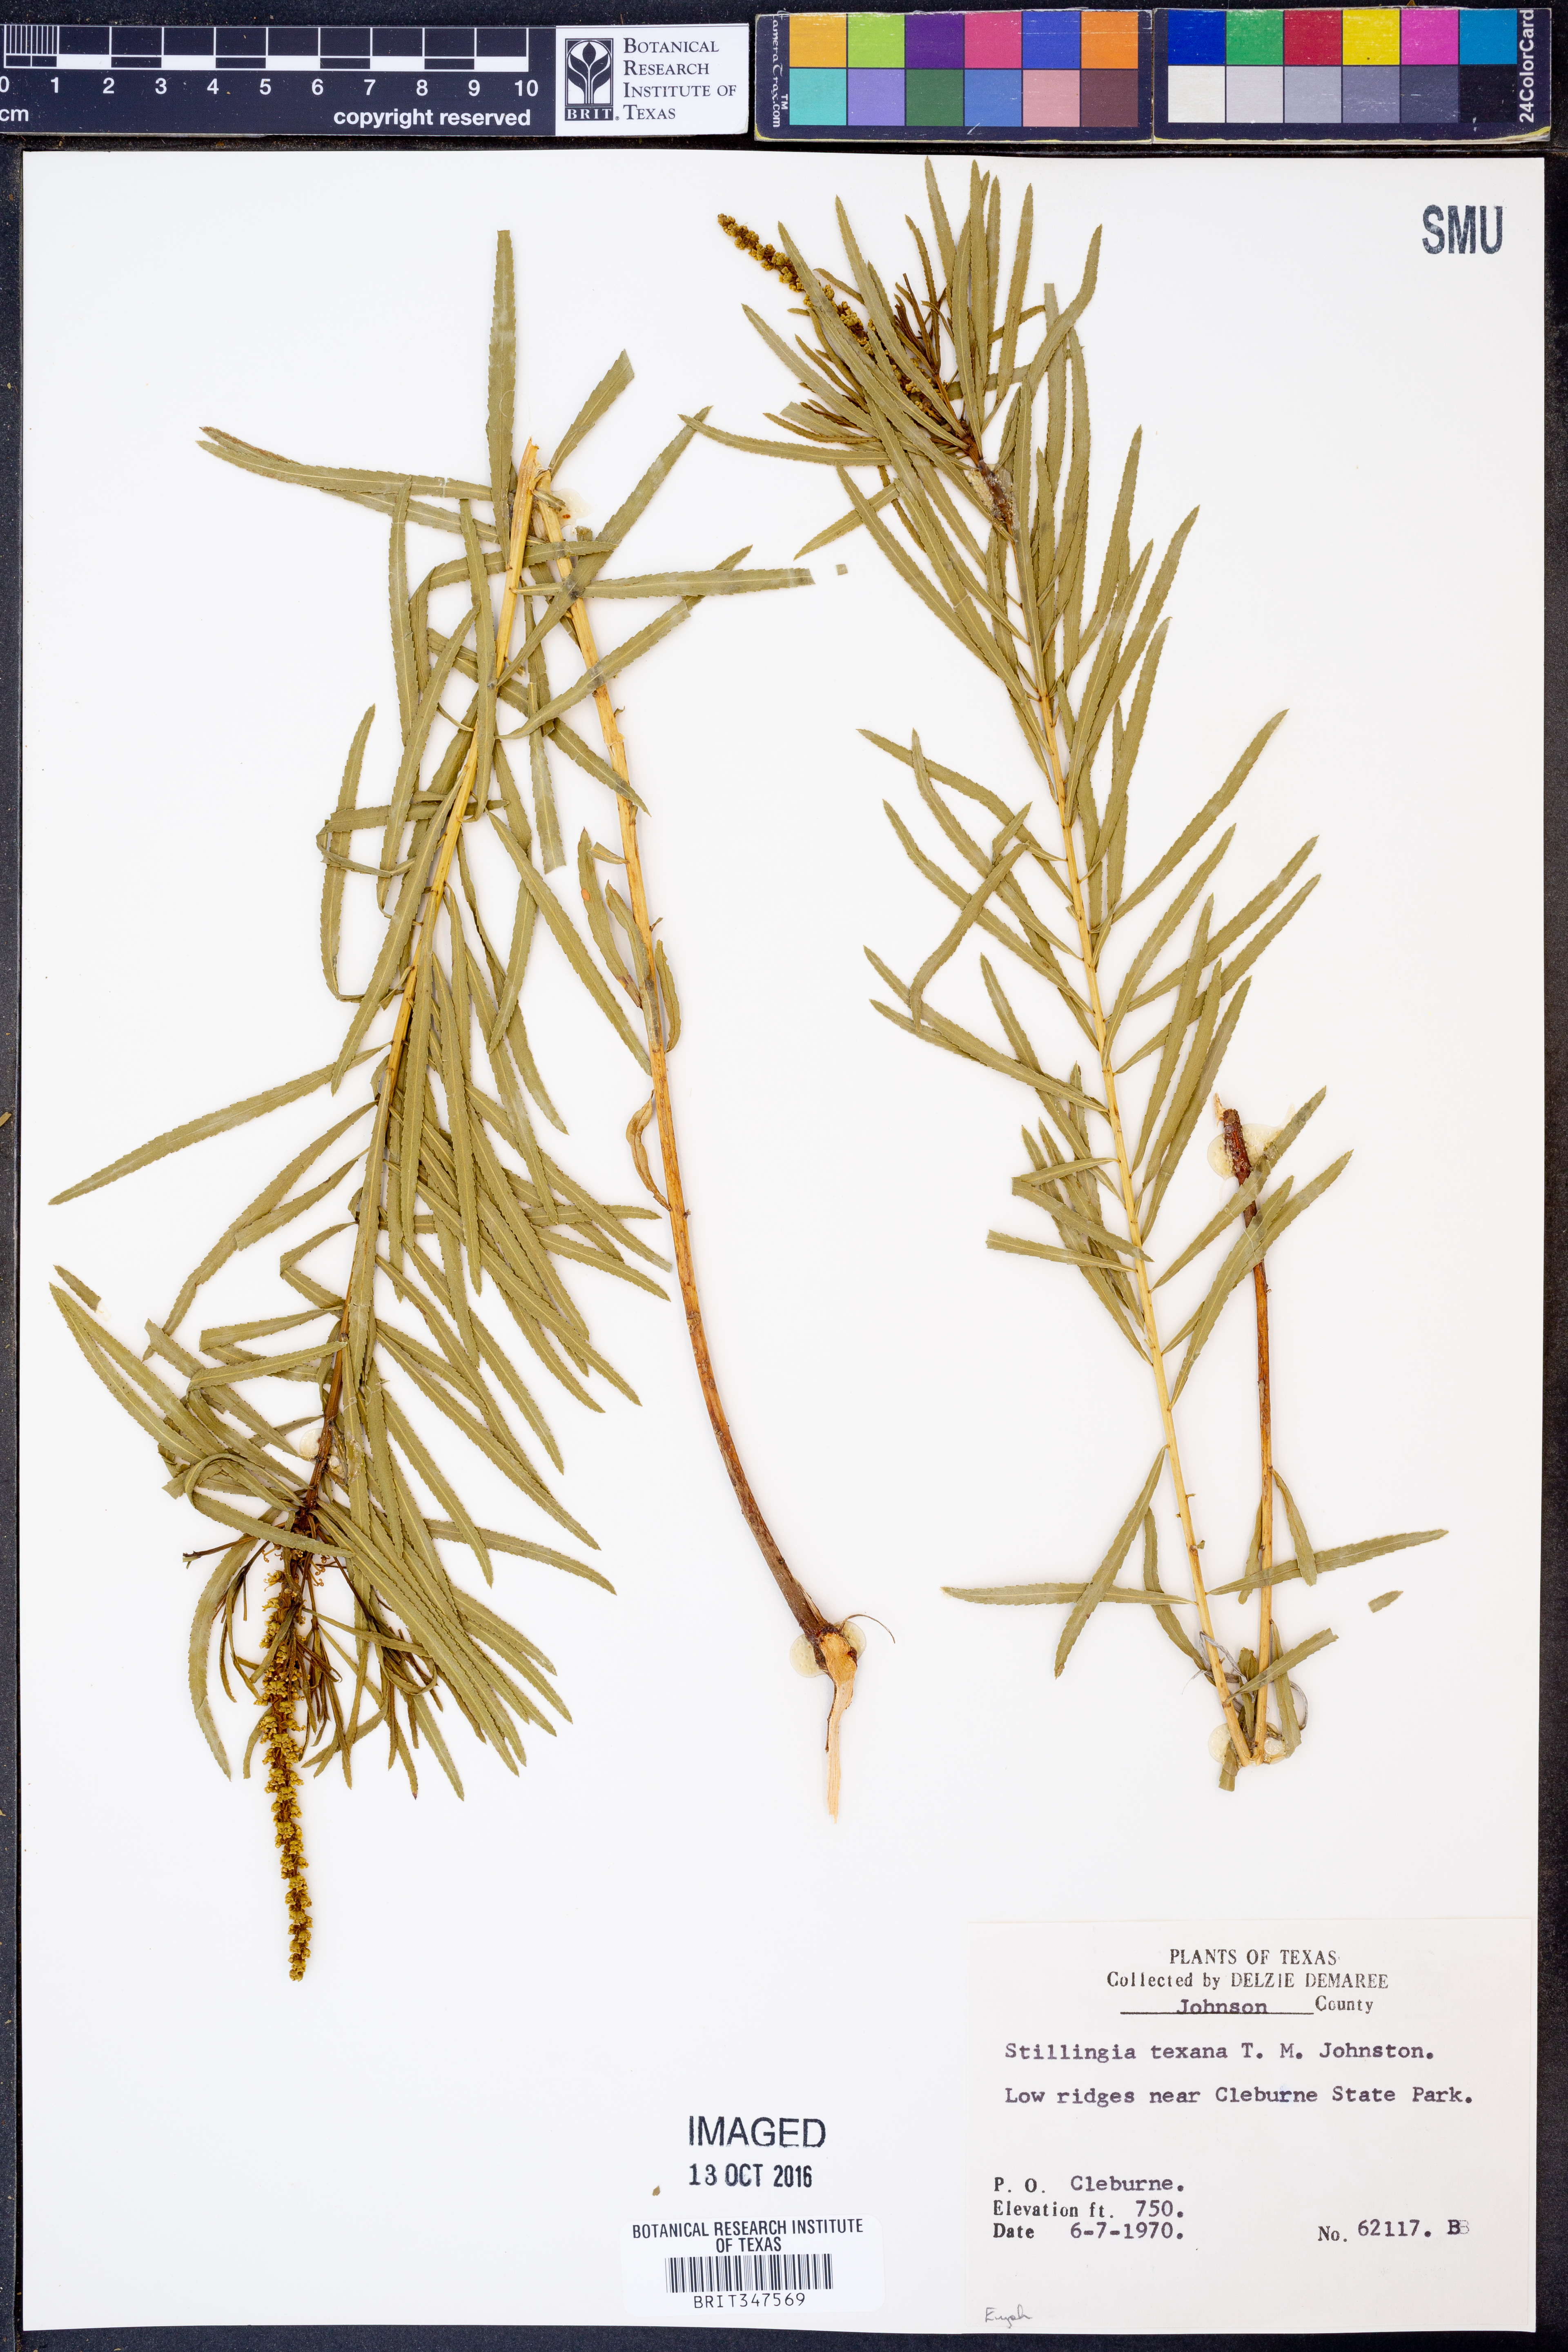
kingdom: Plantae
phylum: Tracheophyta
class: Magnoliopsida
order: Malpighiales
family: Euphorbiaceae
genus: Stillingia
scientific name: Stillingia texana
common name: Texas stillingia
